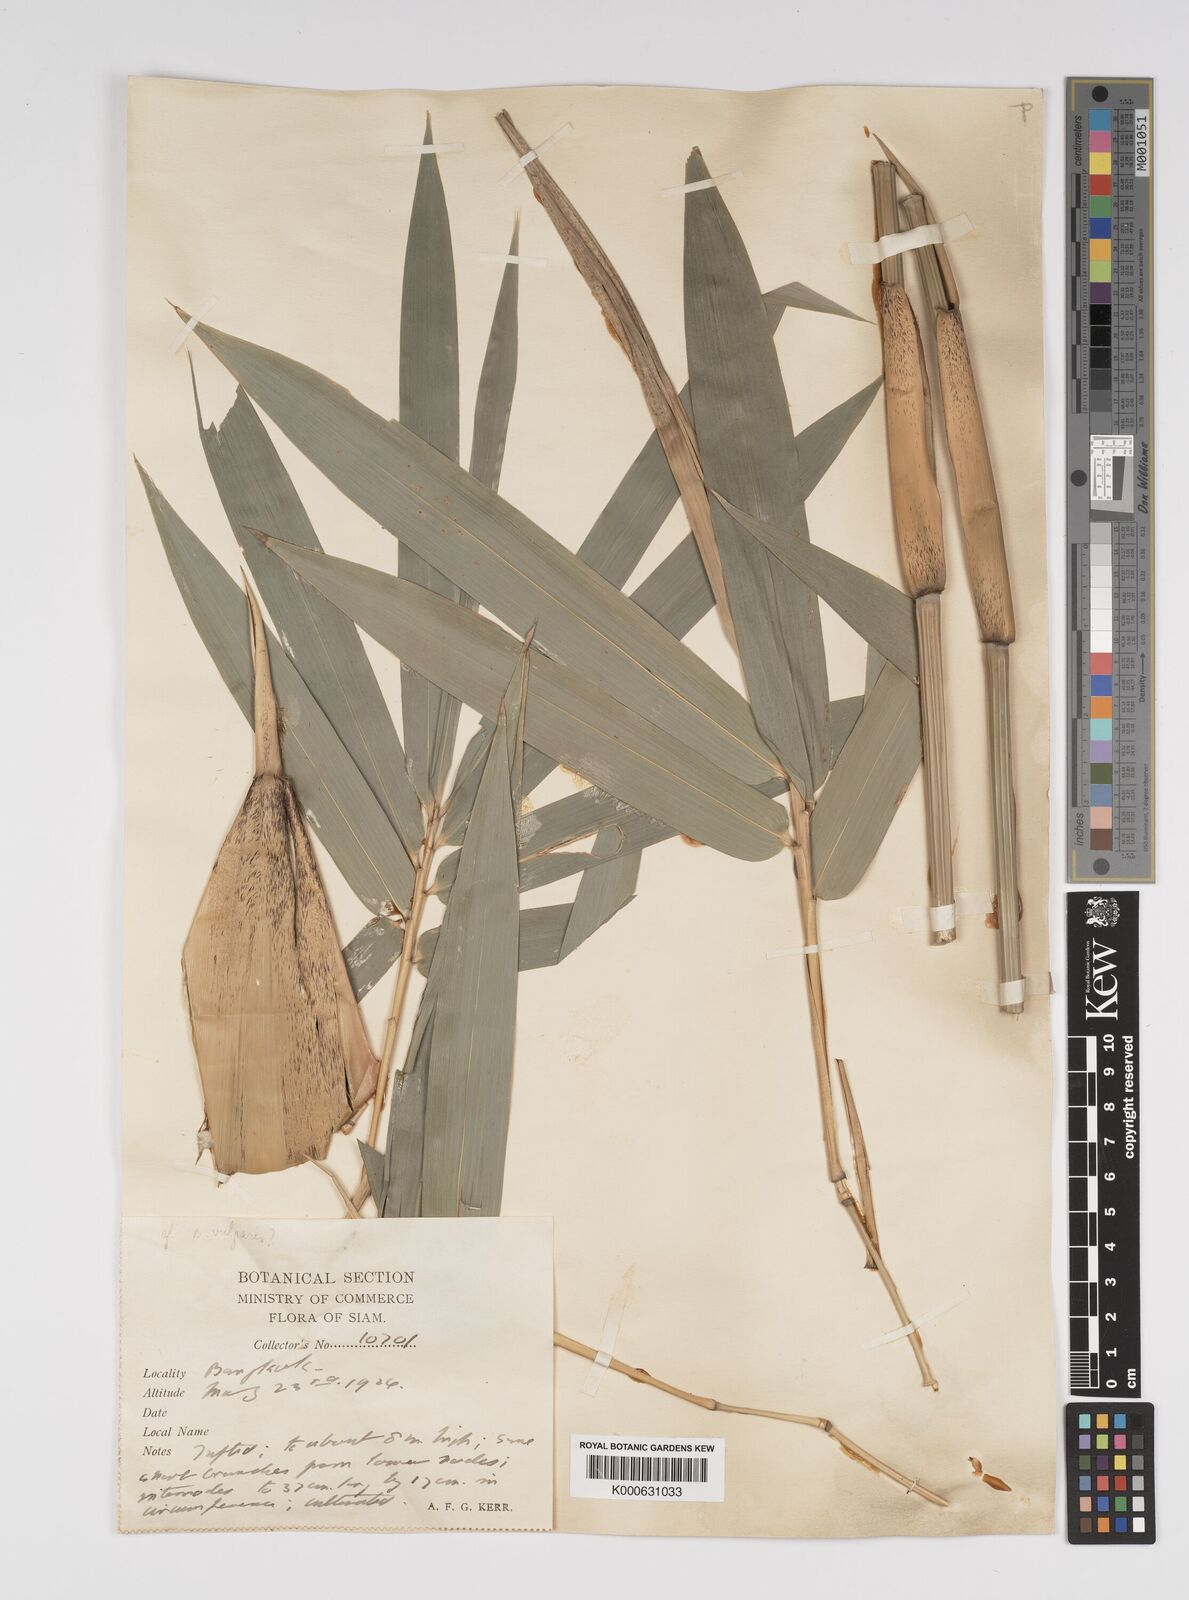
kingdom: Plantae
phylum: Tracheophyta
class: Liliopsida
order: Poales
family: Poaceae
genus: Bambusa
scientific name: Bambusa
